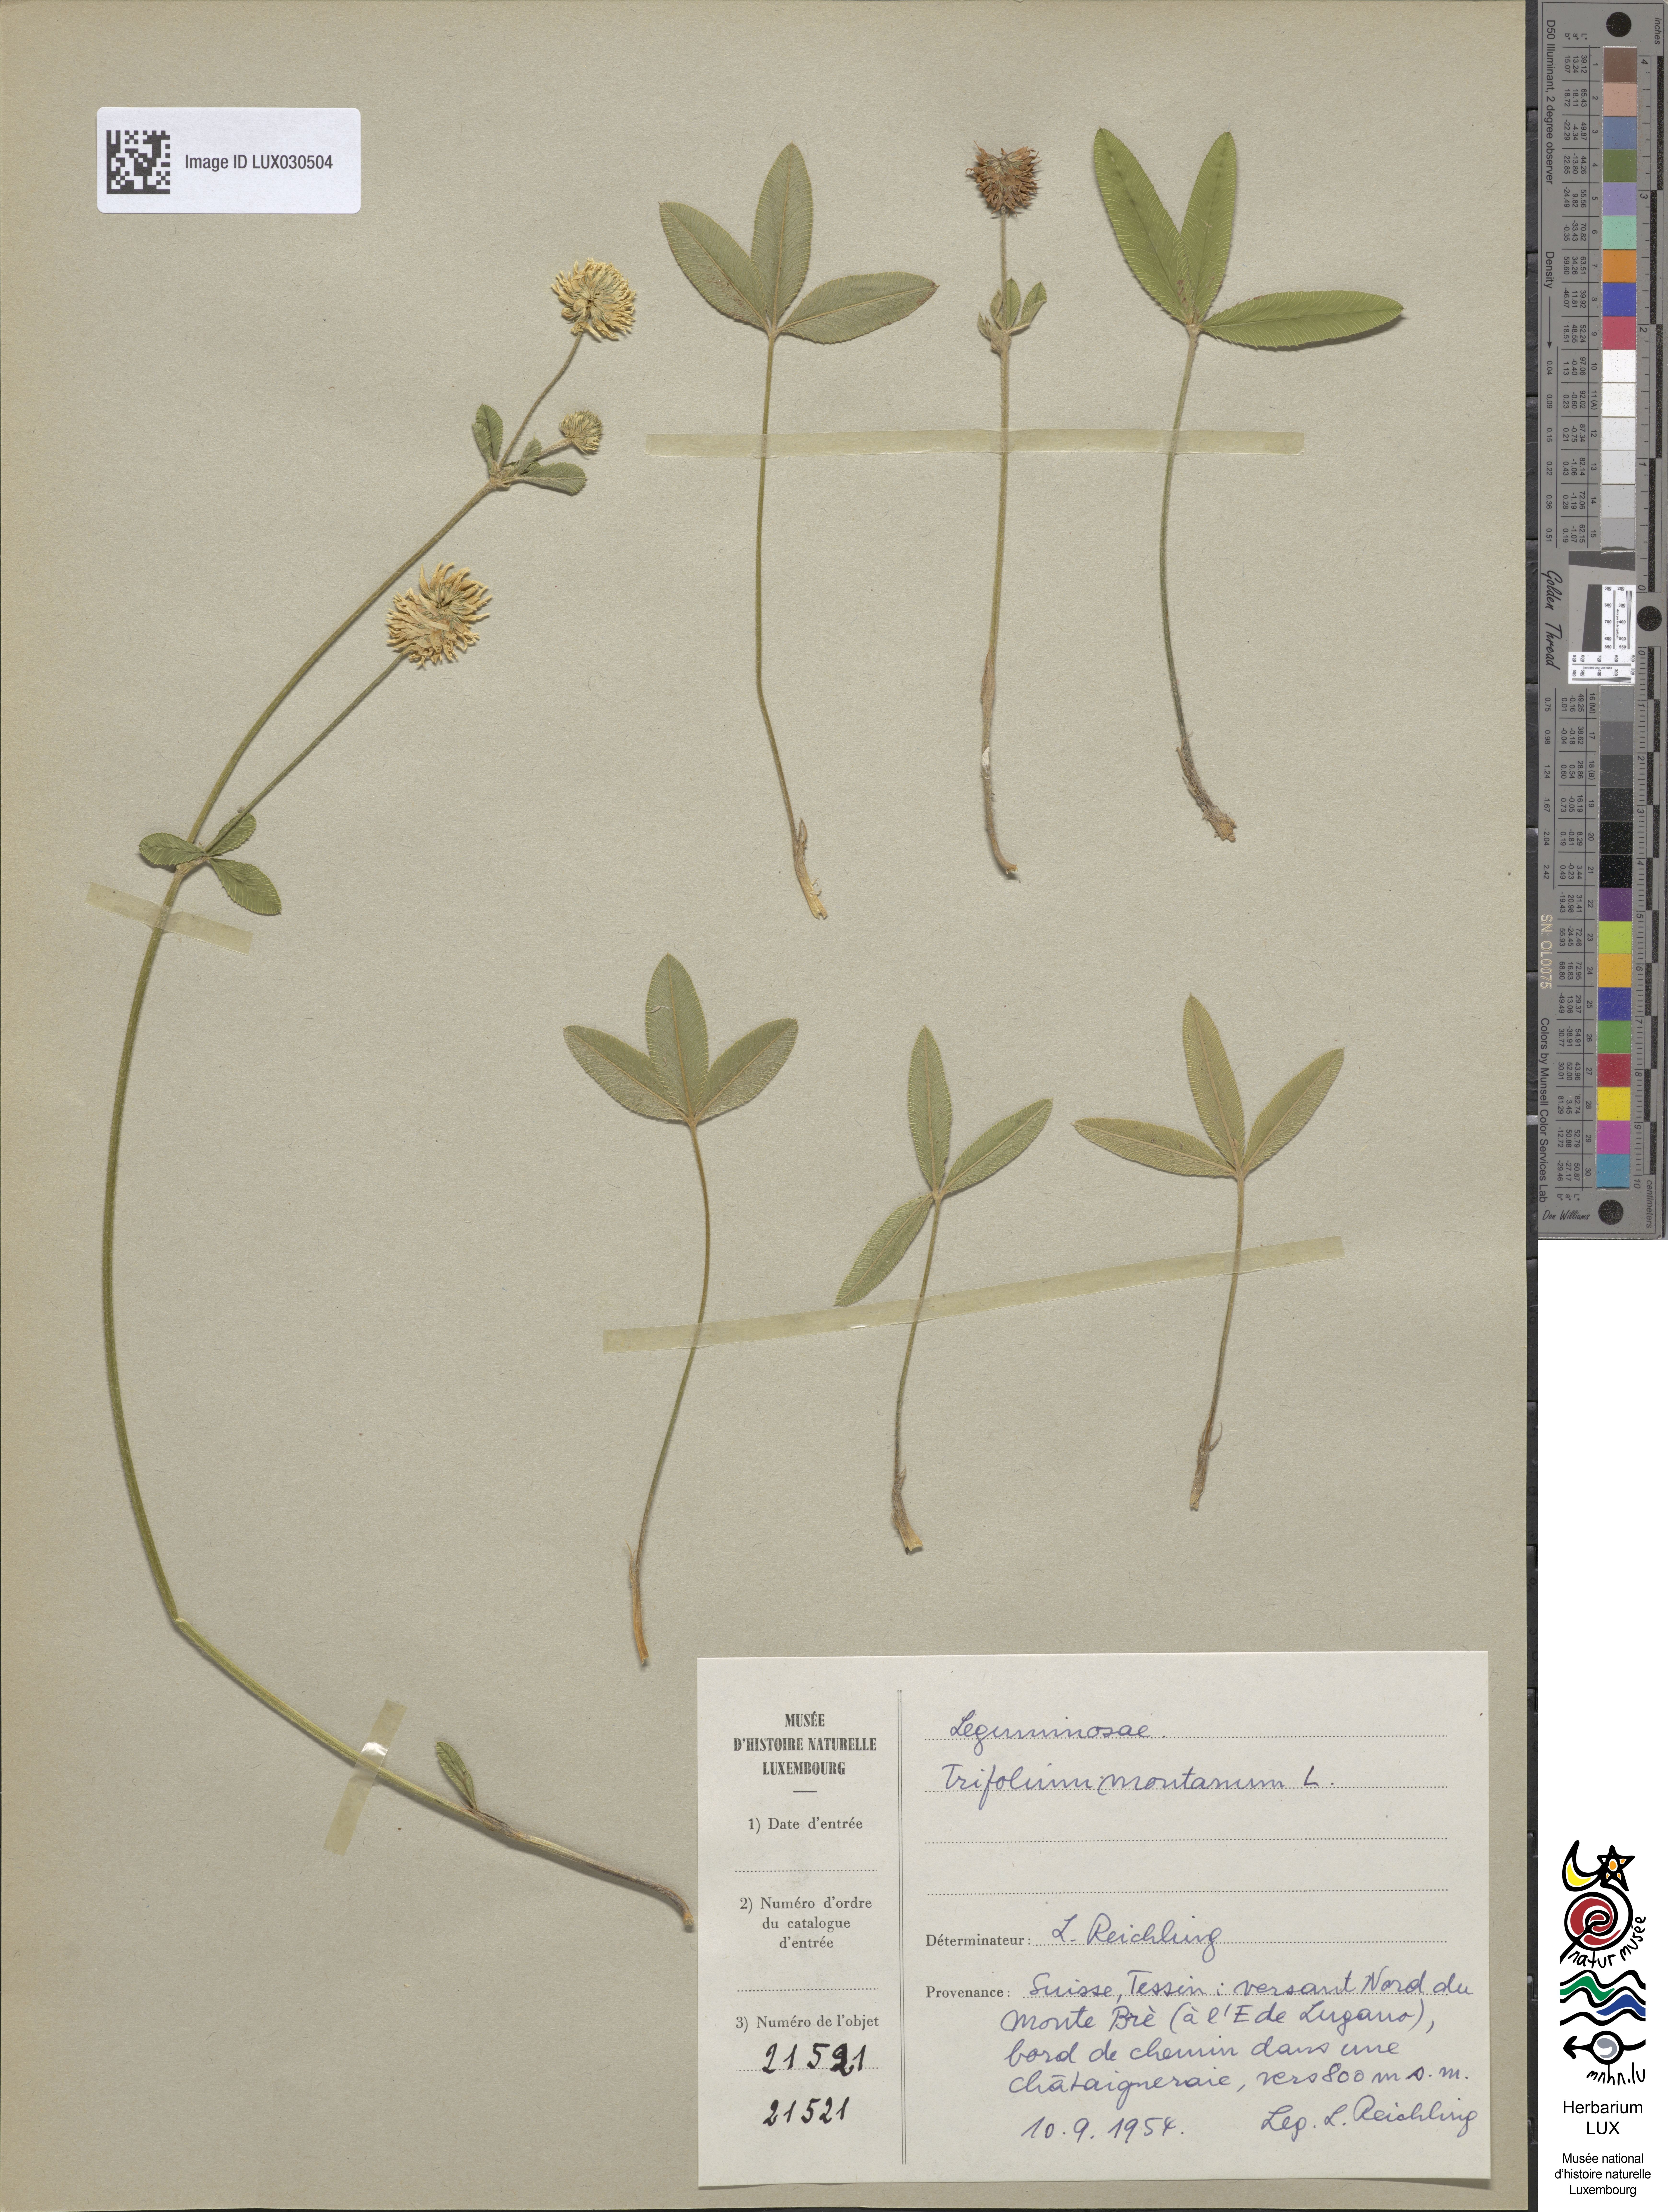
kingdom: Plantae
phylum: Tracheophyta
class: Magnoliopsida
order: Fabales
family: Fabaceae
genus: Trifolium
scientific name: Trifolium montanum
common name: Mountain clover
